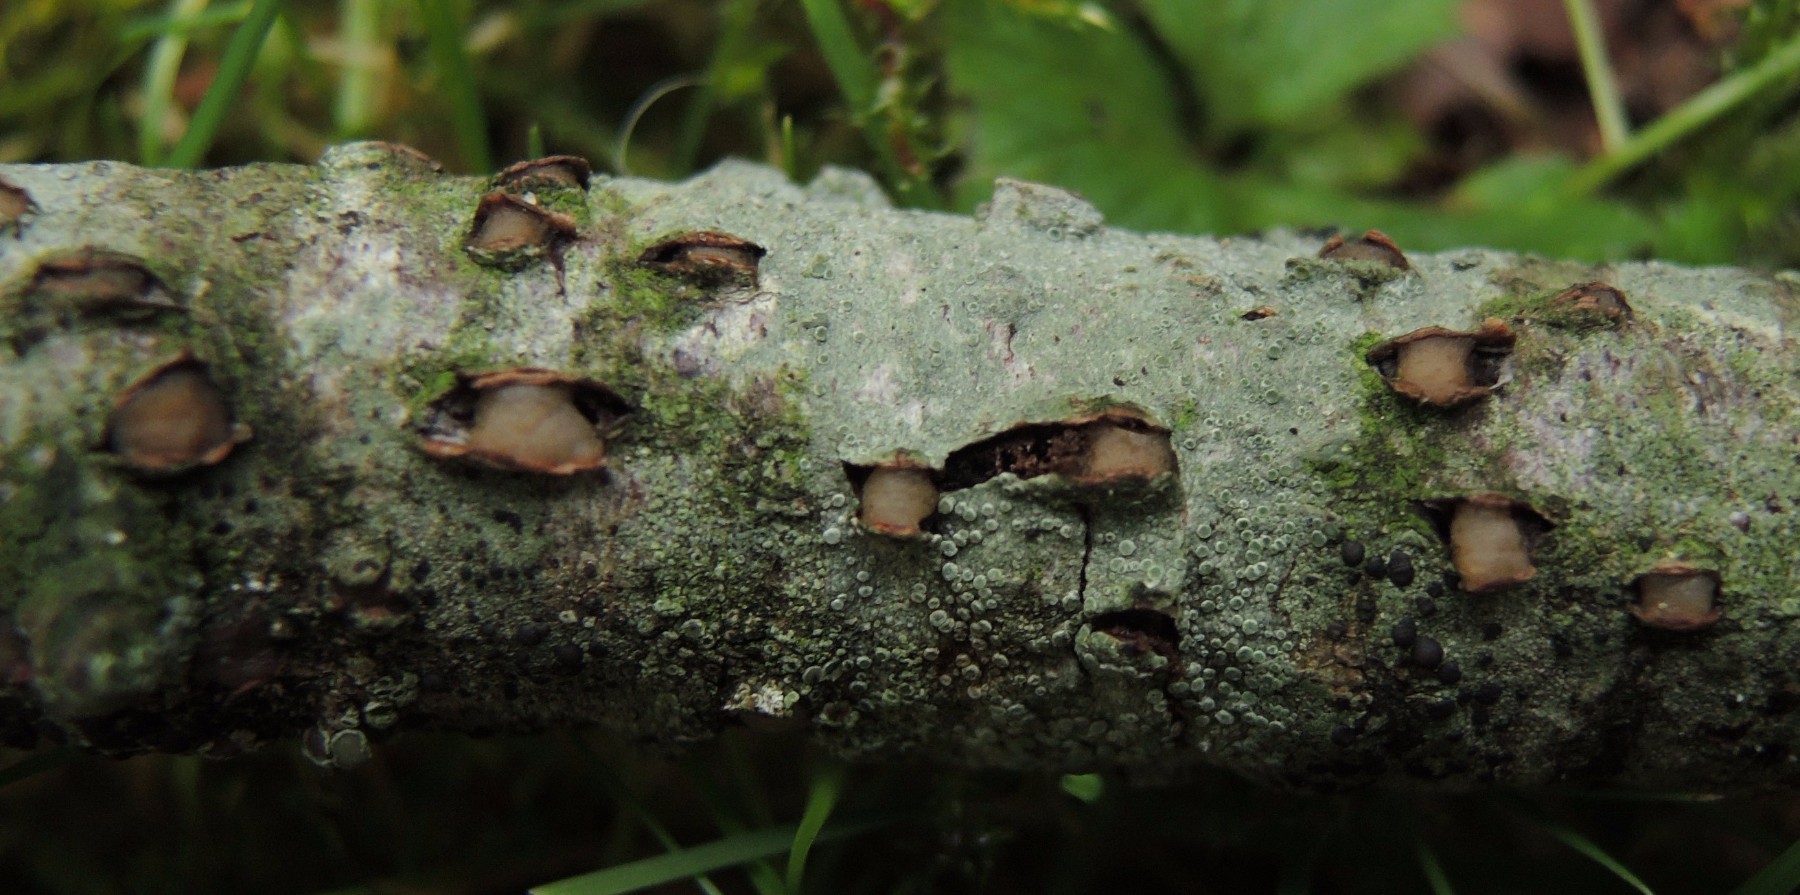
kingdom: Fungi
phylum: Basidiomycota
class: Pucciniomycetes
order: Platygloeales
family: Platygloeaceae
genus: Platygloea
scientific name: Platygloea disciformis
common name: linde-slimklat
